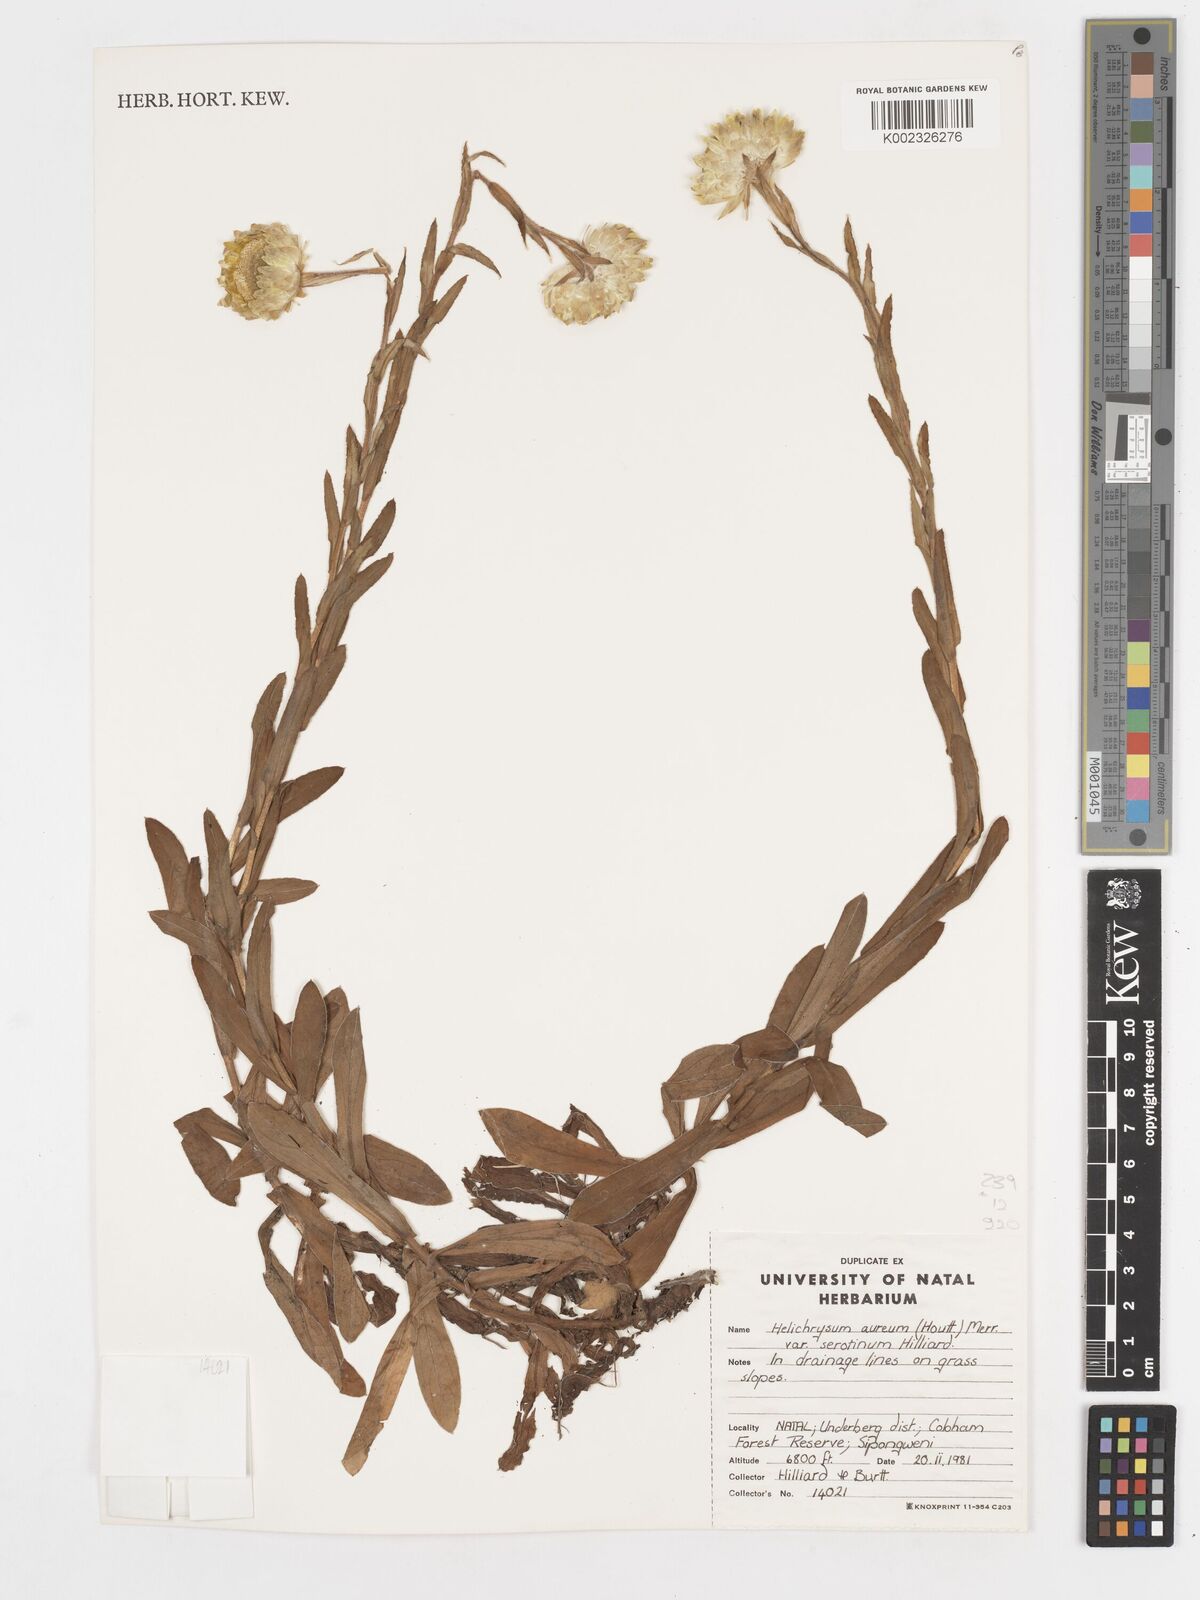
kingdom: Plantae
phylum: Tracheophyta
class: Magnoliopsida
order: Asterales
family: Asteraceae
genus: Helichrysum
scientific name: Helichrysum aureum
